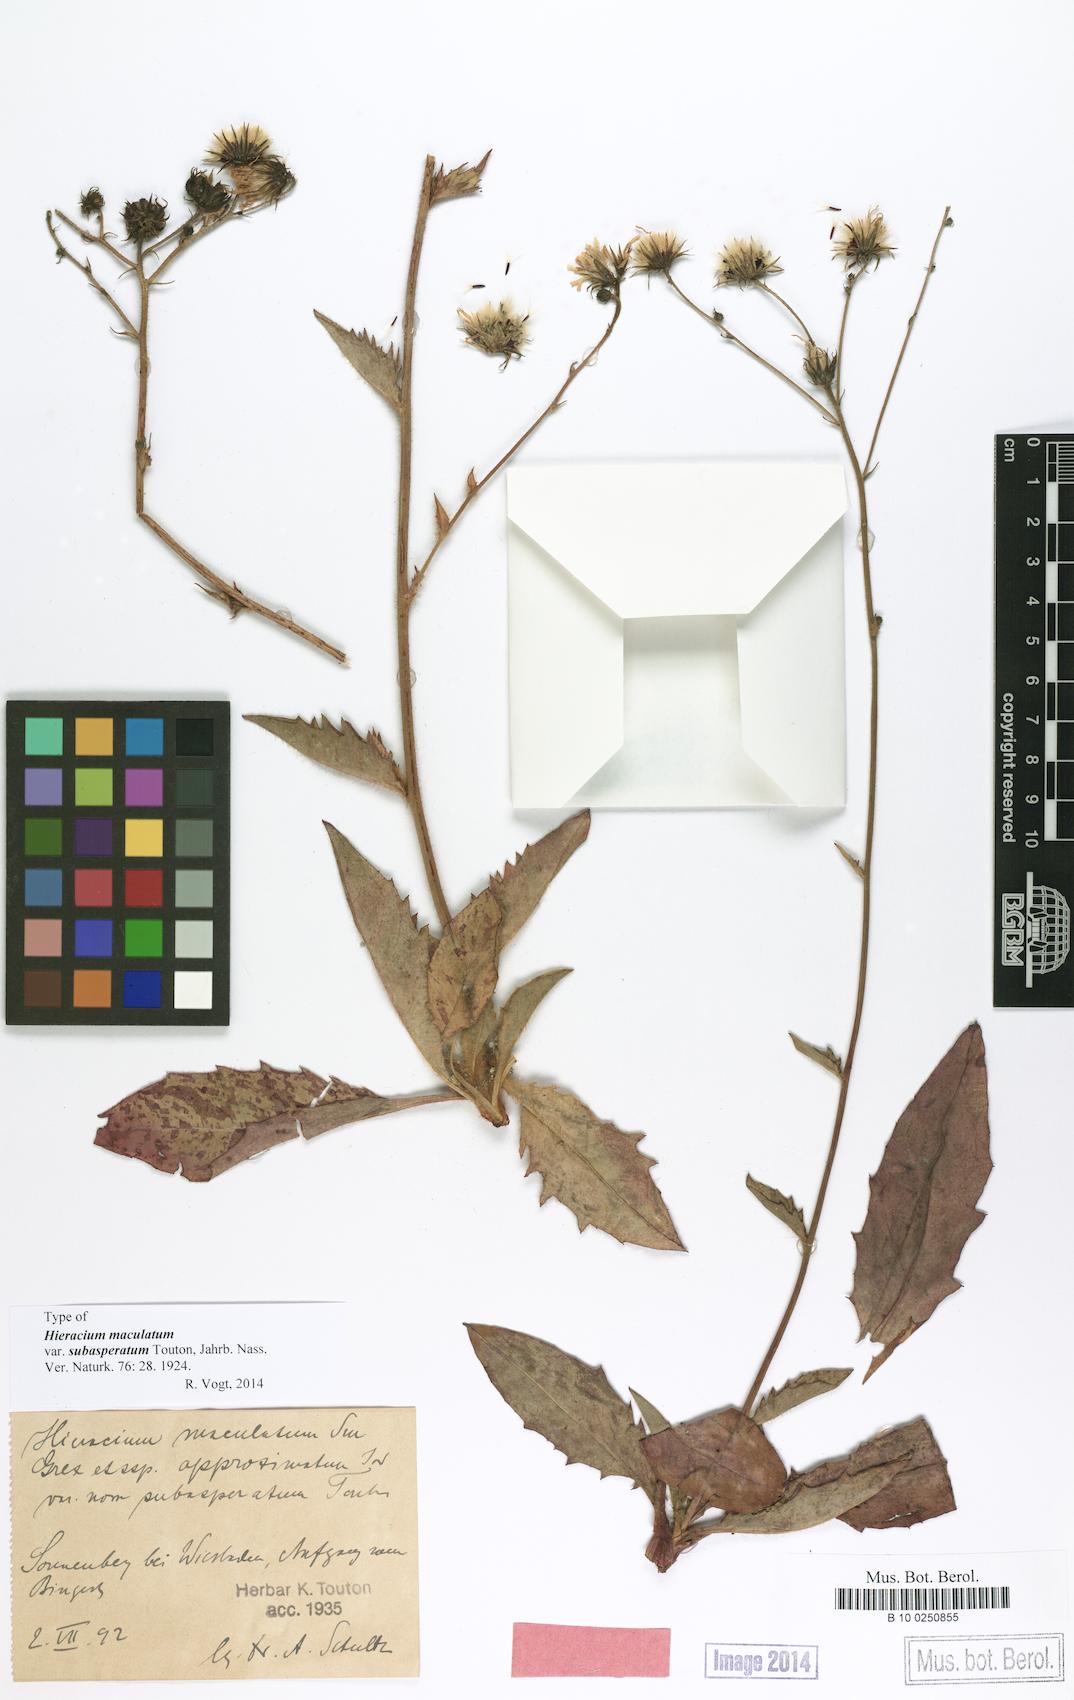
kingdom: Plantae
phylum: Tracheophyta
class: Magnoliopsida
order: Asterales
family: Asteraceae
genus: Hieracium
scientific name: Hieracium maculatum
